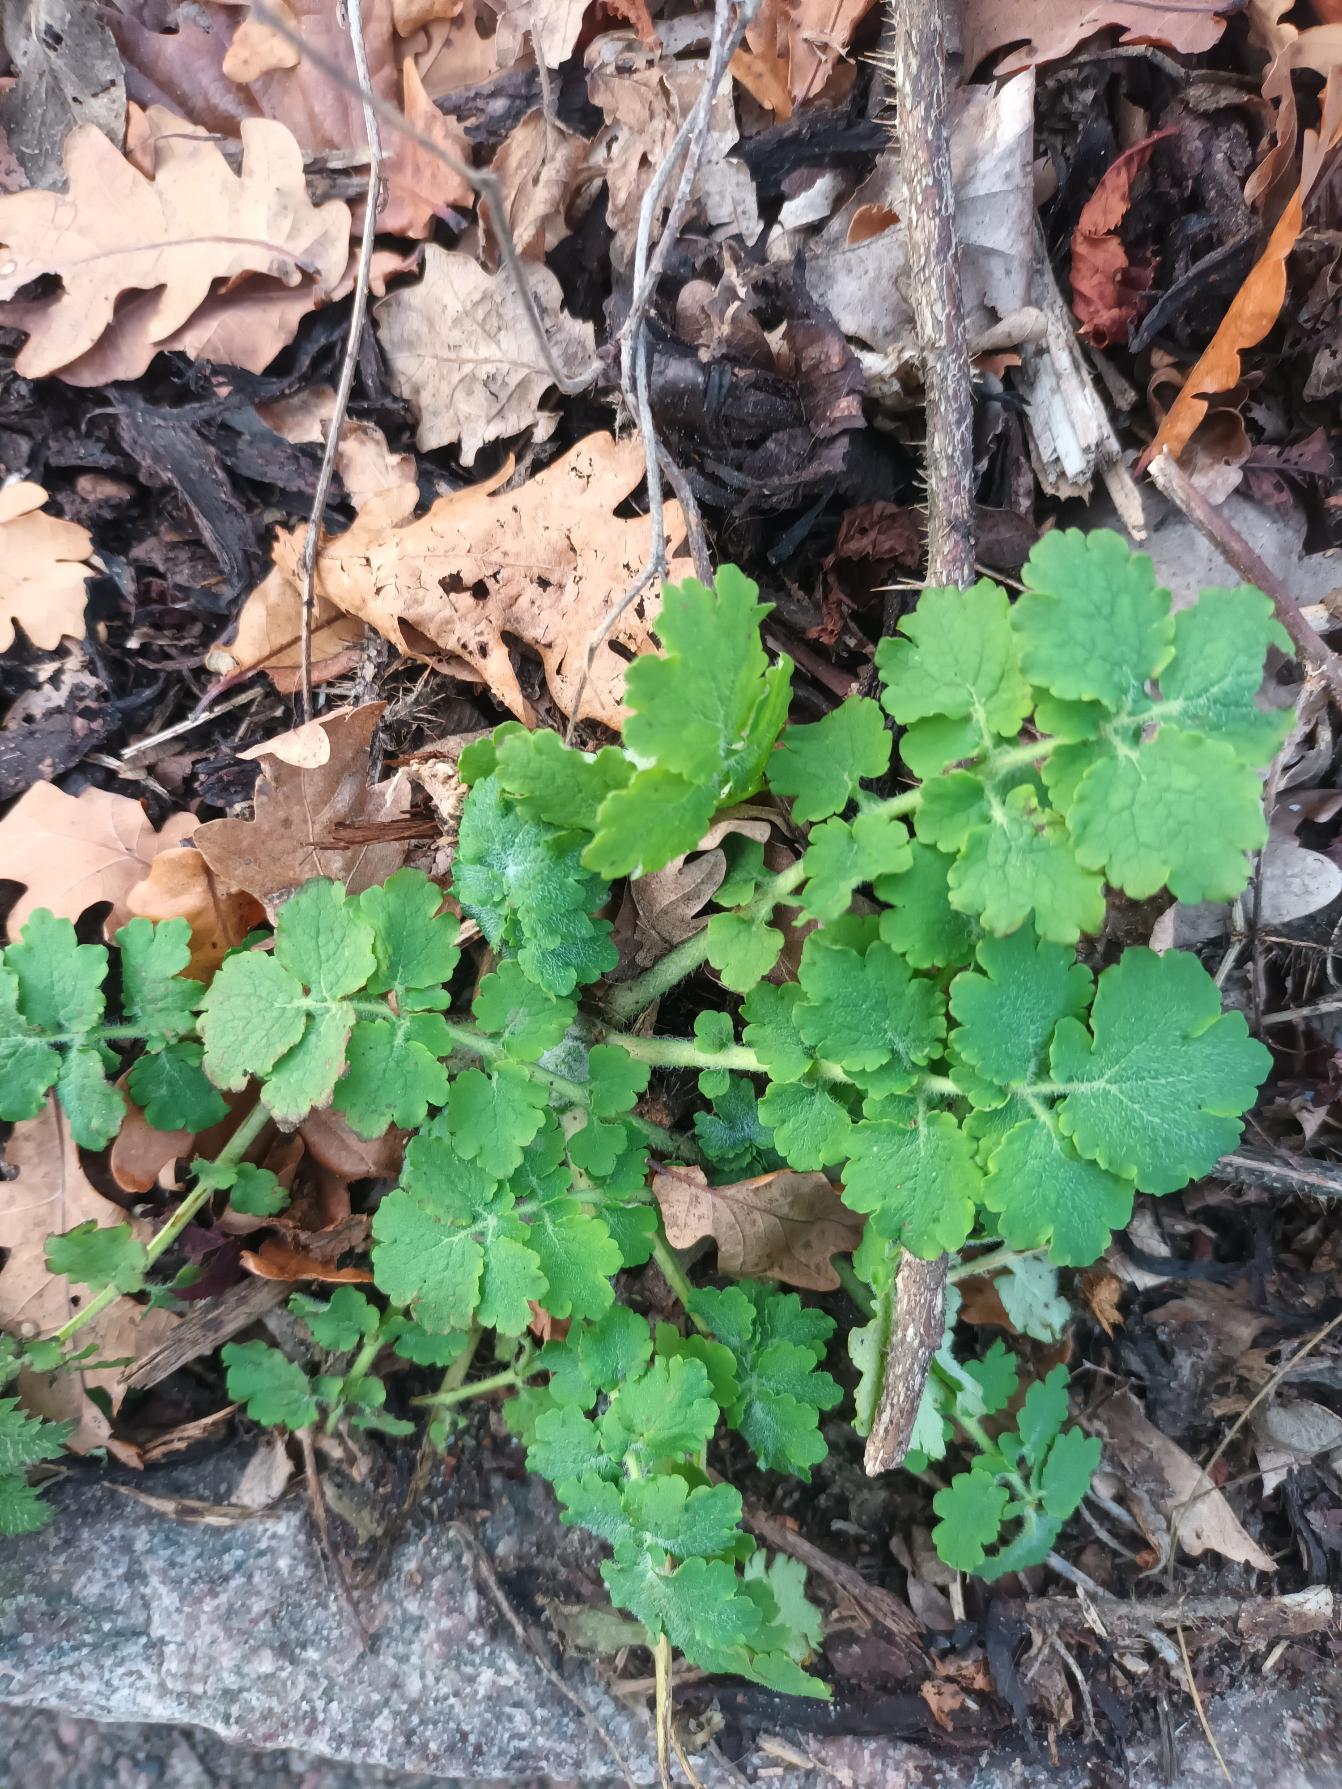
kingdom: Plantae
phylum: Tracheophyta
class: Magnoliopsida
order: Ranunculales
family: Papaveraceae
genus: Chelidonium
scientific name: Chelidonium majus
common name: Svaleurt
